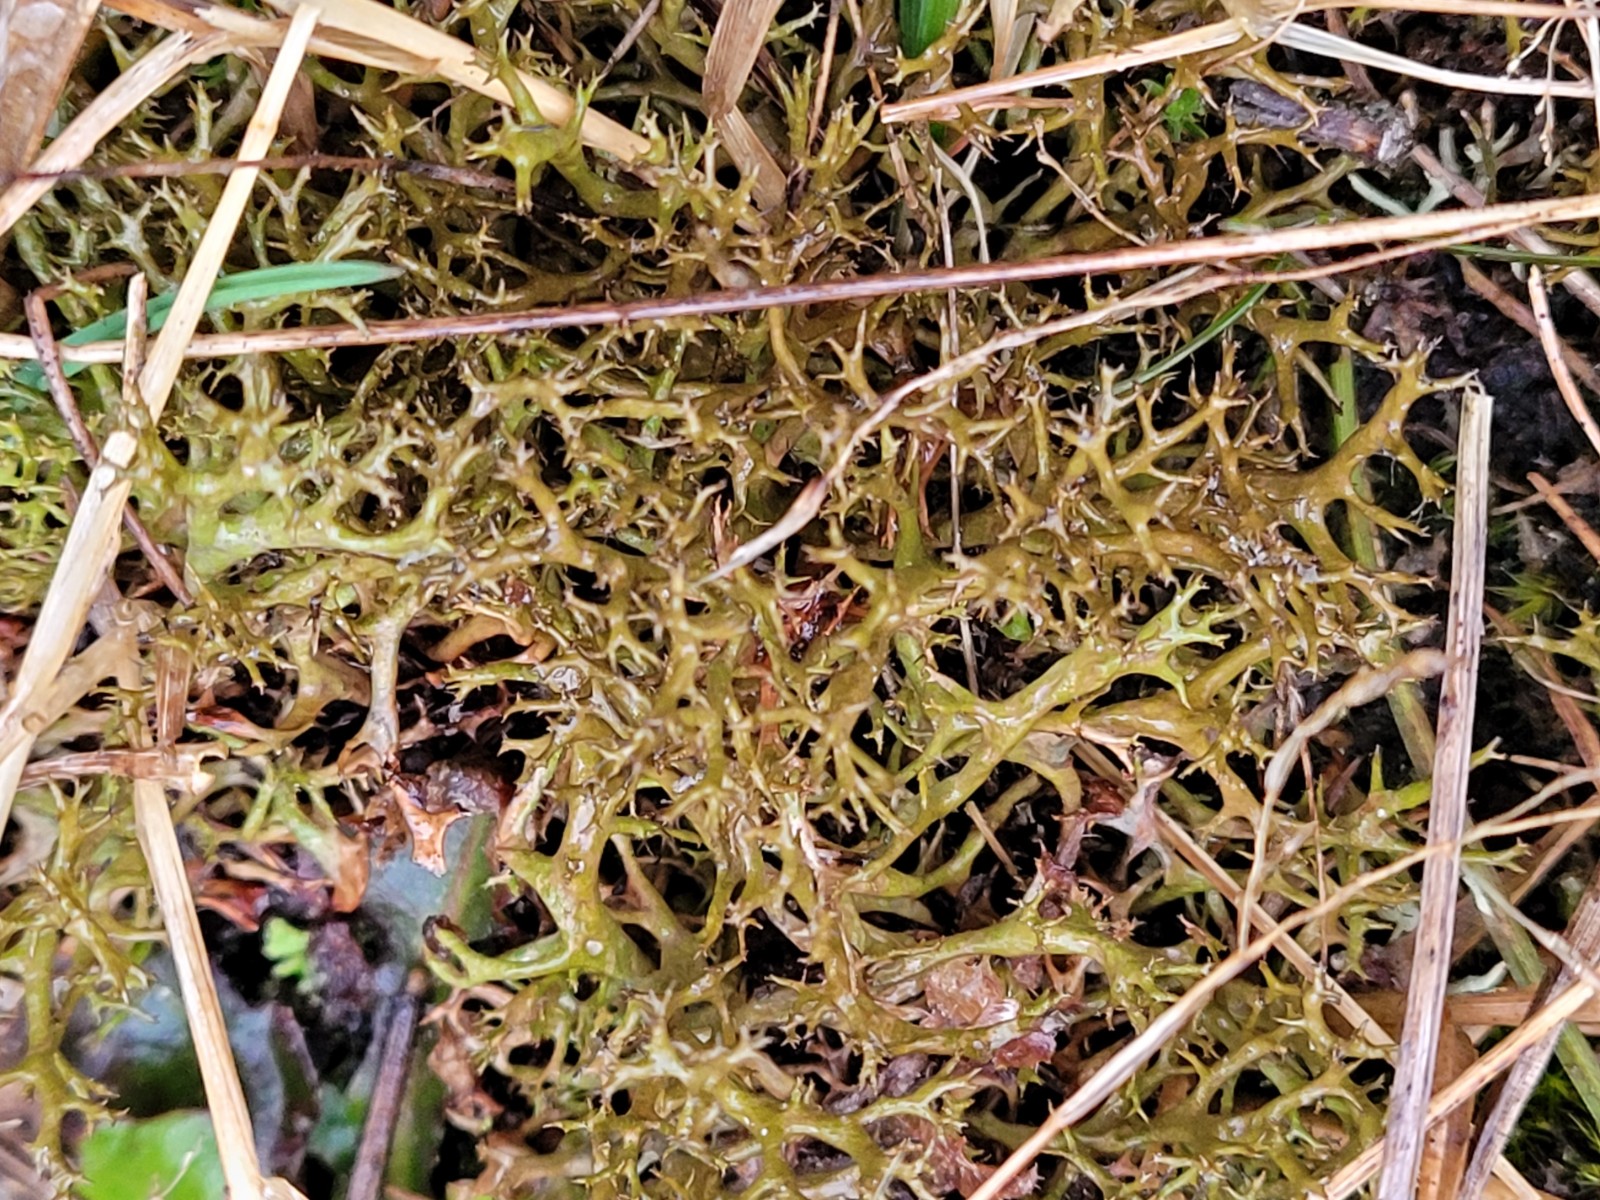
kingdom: Fungi
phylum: Ascomycota
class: Lecanoromycetes
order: Lecanorales
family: Parmeliaceae
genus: Cetraria
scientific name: Cetraria aculeata
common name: grubet tjørnelav
